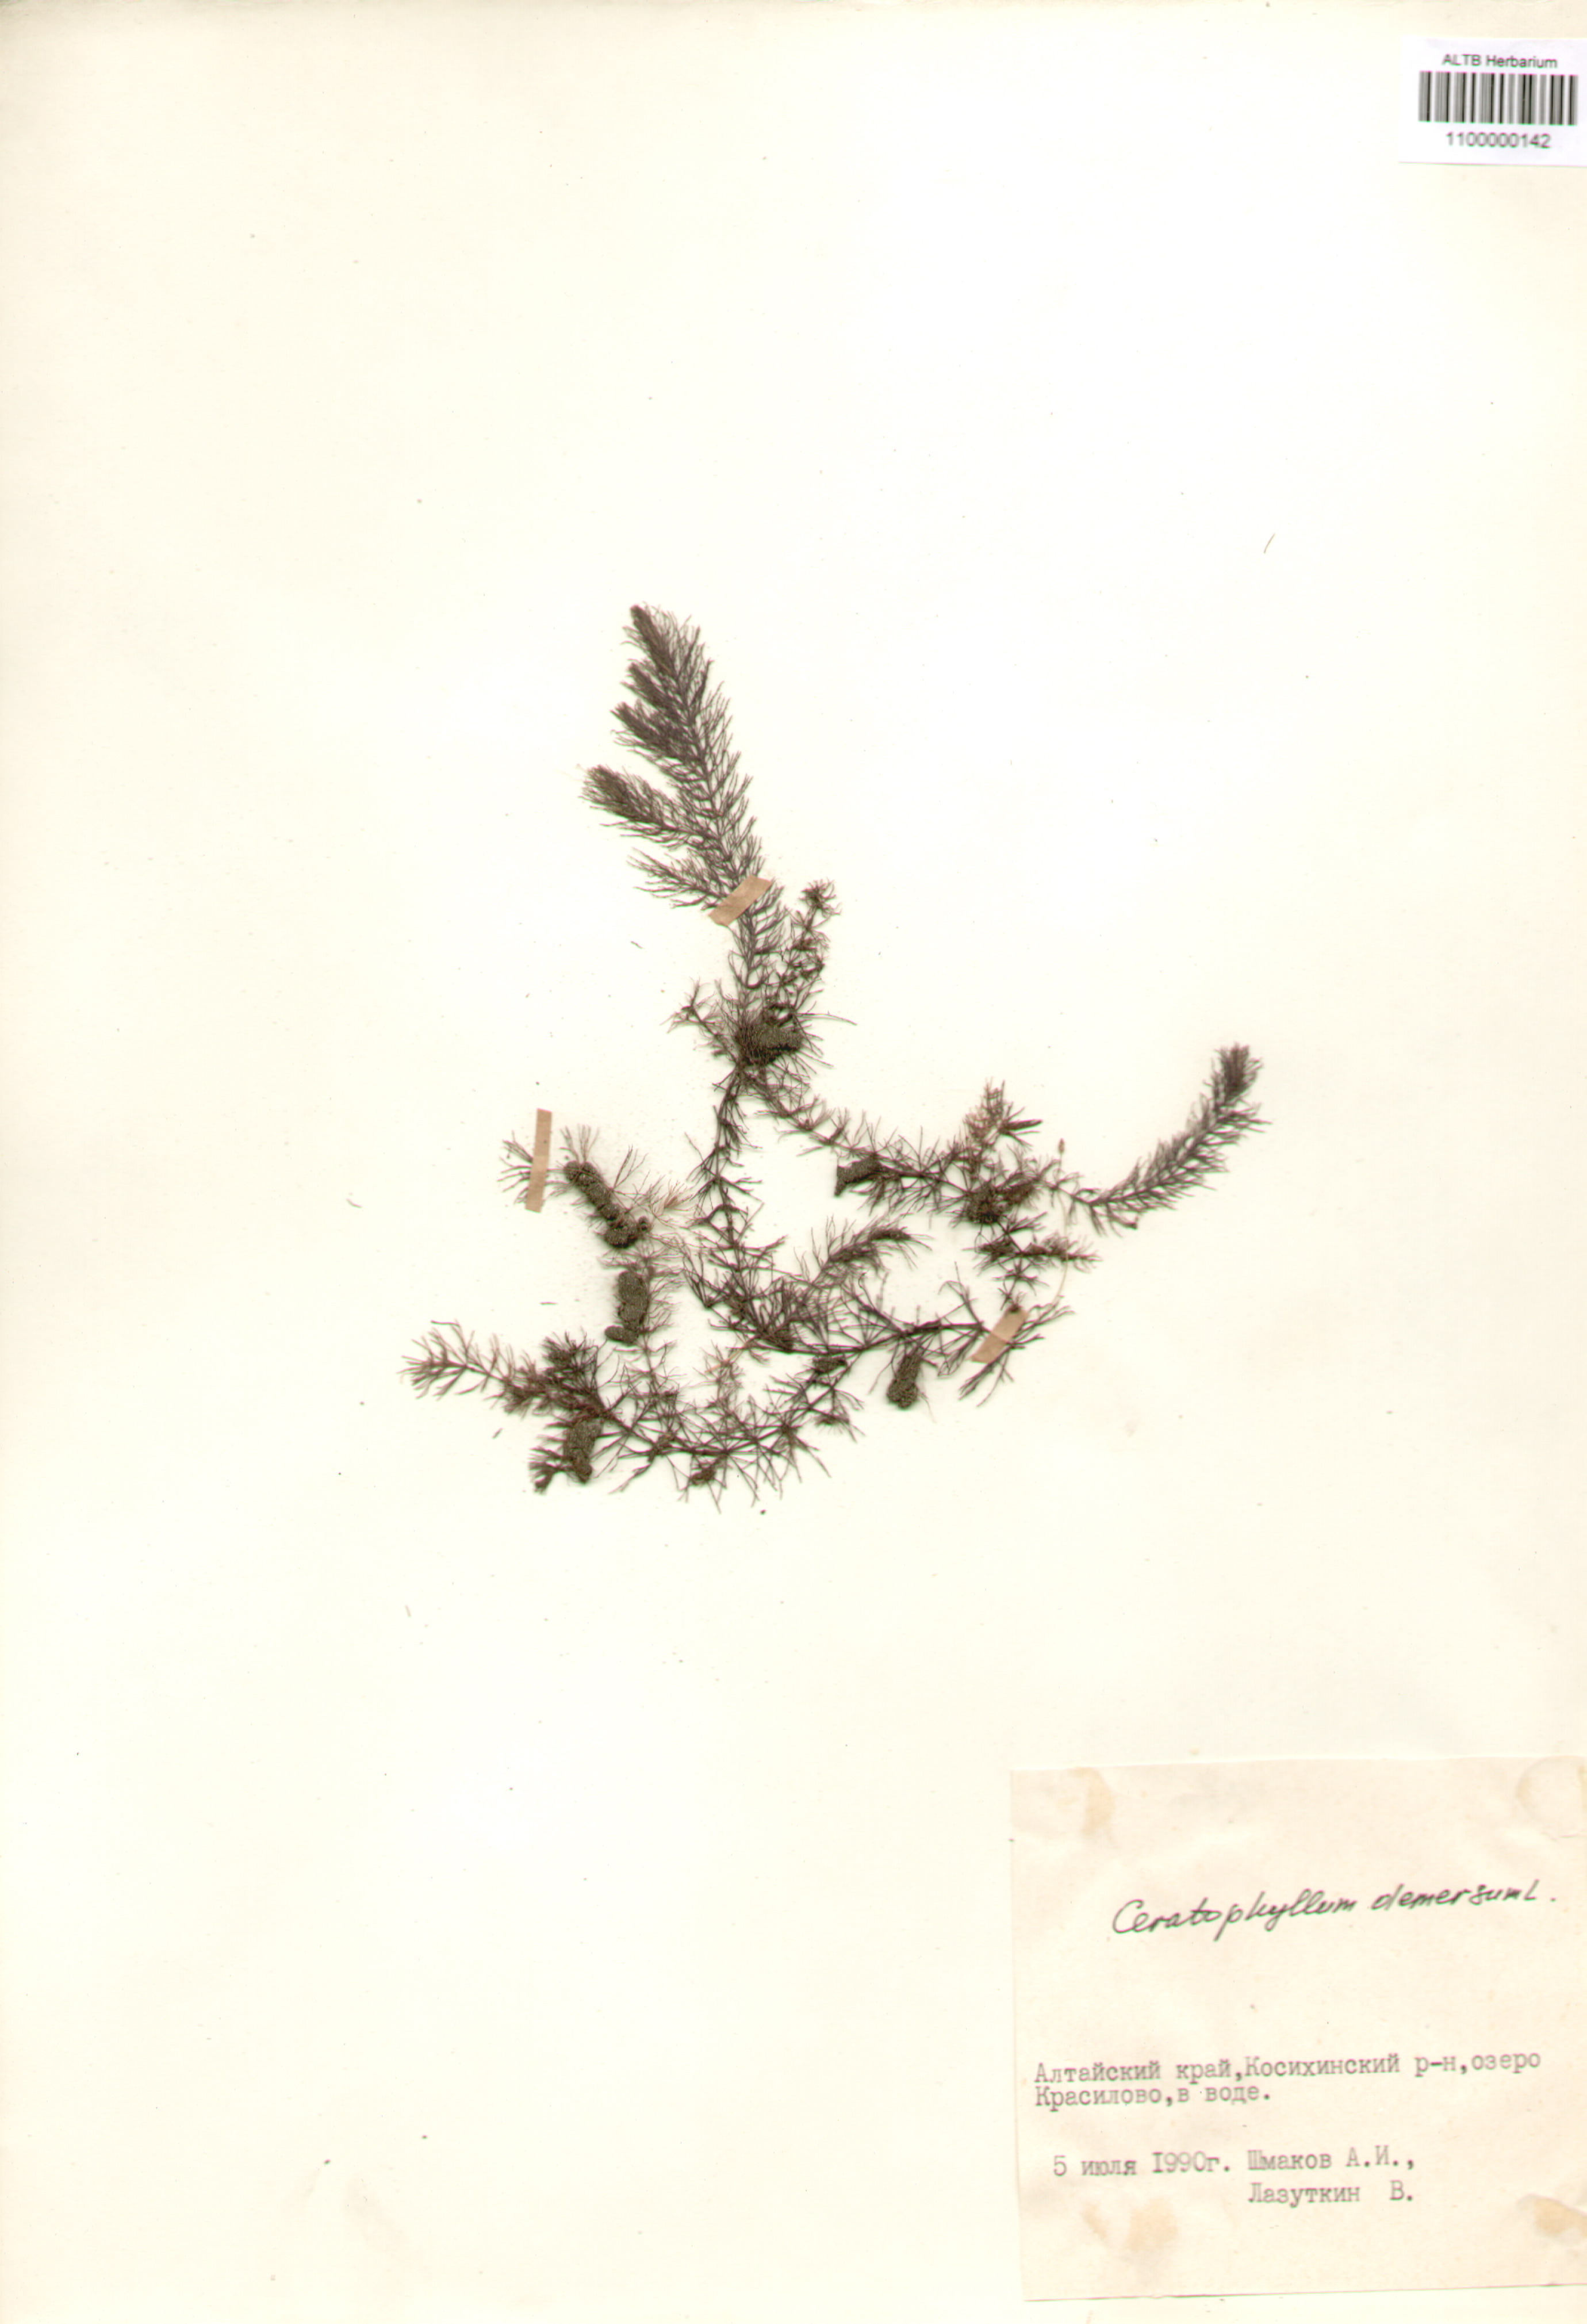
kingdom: Plantae
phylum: Tracheophyta
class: Magnoliopsida
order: Ceratophyllales
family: Ceratophyllaceae
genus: Ceratophyllum
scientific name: Ceratophyllum demersum
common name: Rigid hornwort
